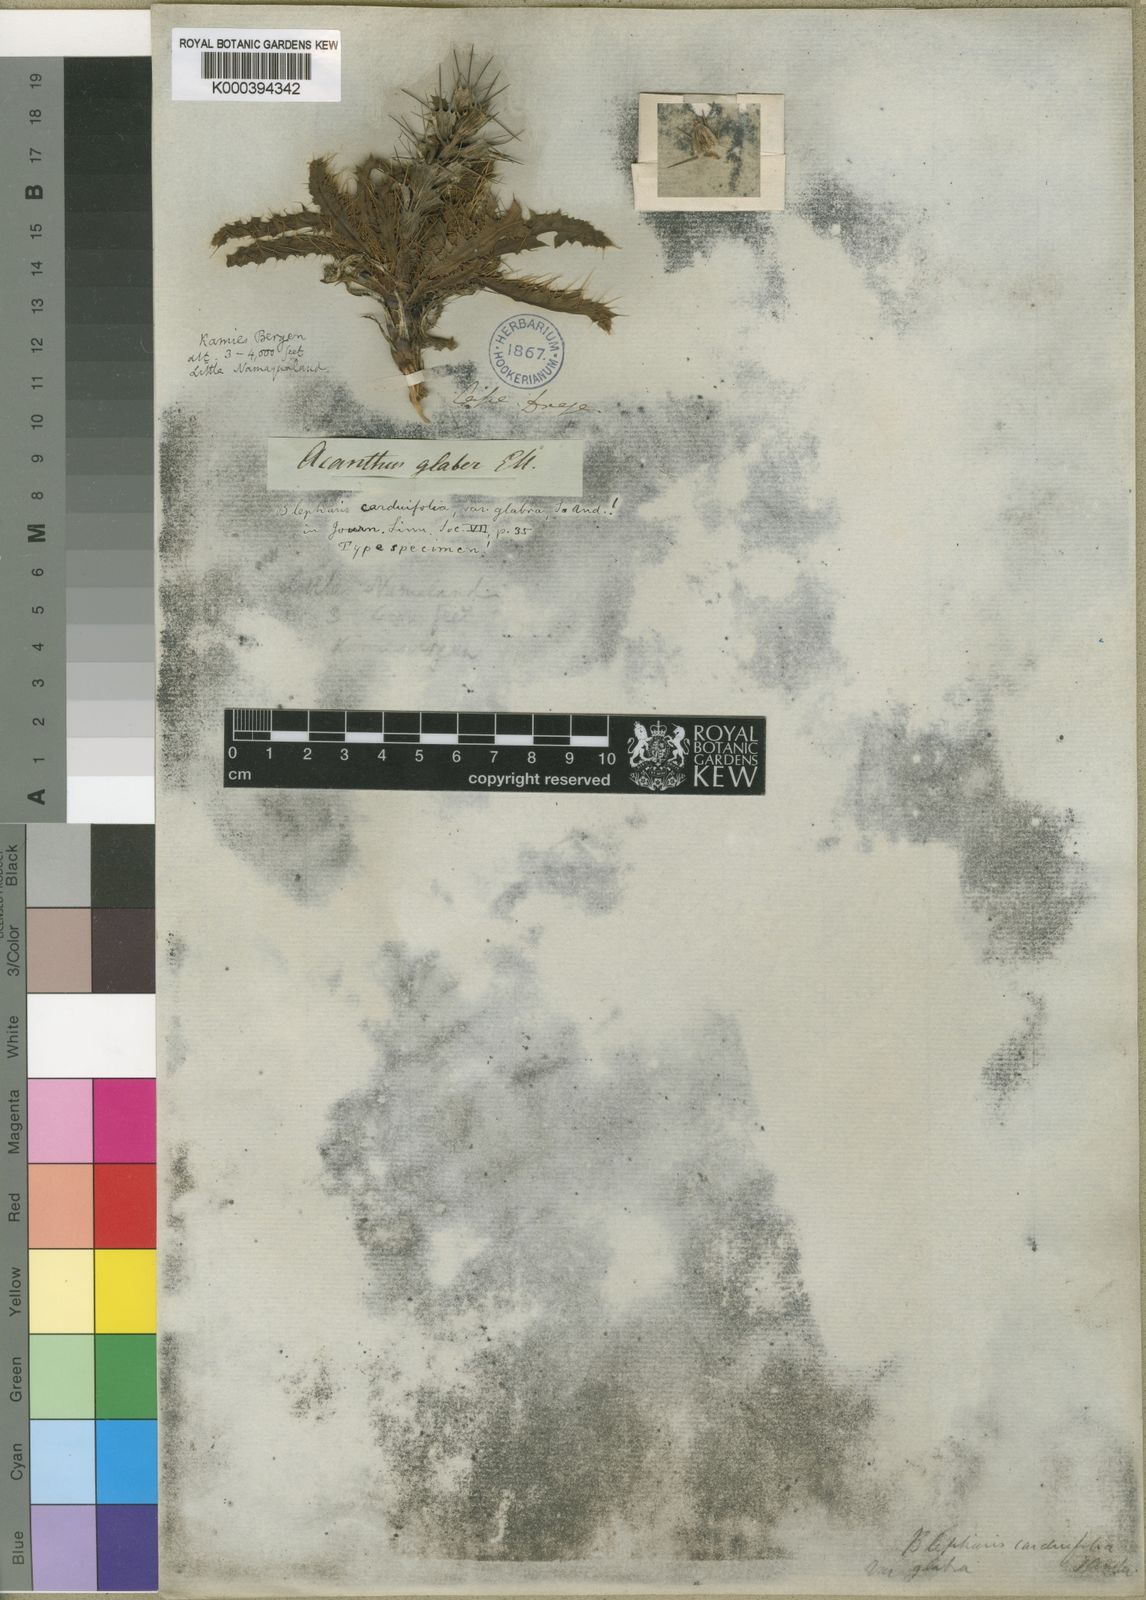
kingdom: Plantae
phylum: Tracheophyta
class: Magnoliopsida
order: Lamiales
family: Acanthaceae
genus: Acanthopsis
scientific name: Acanthopsis carduifolia
